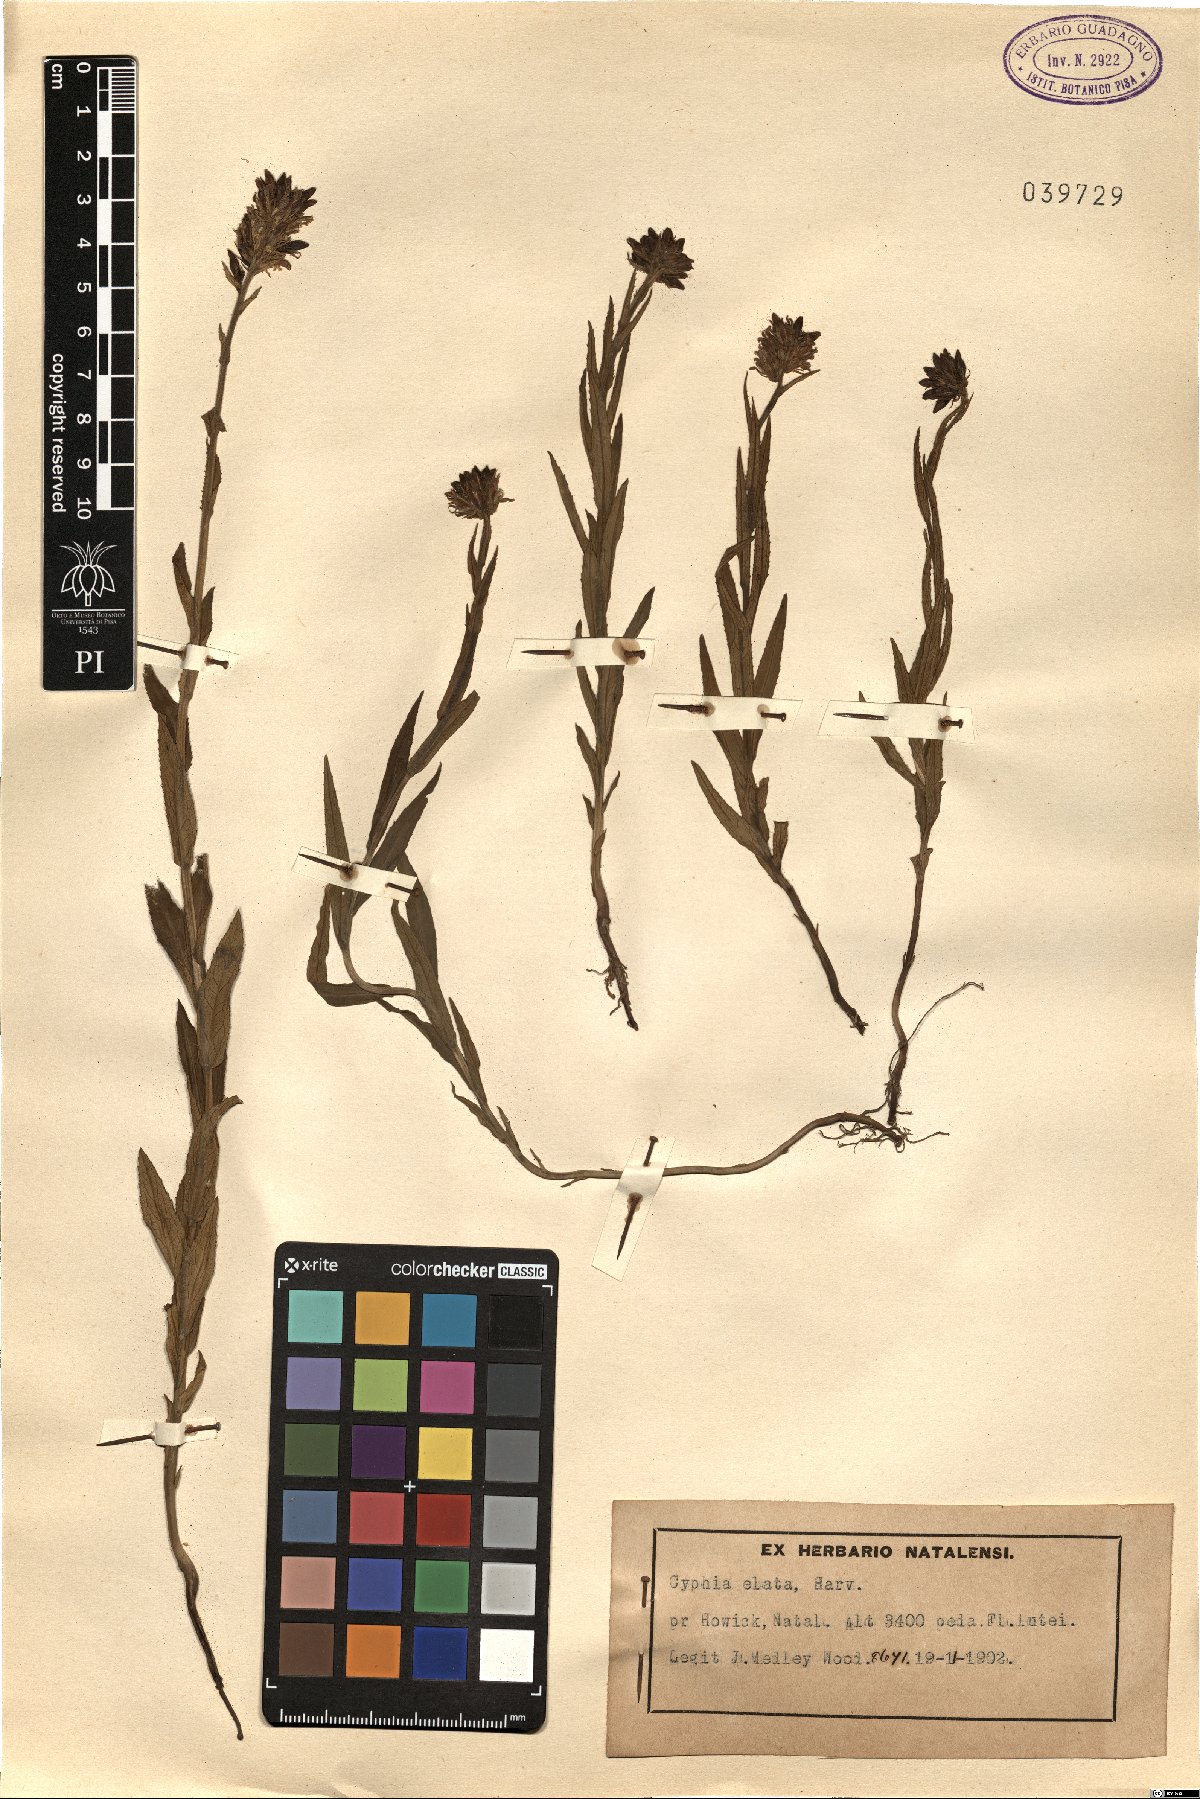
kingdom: Plantae
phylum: Tracheophyta
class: Magnoliopsida
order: Asterales
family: Campanulaceae
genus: Cyphia
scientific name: Cyphia elata
